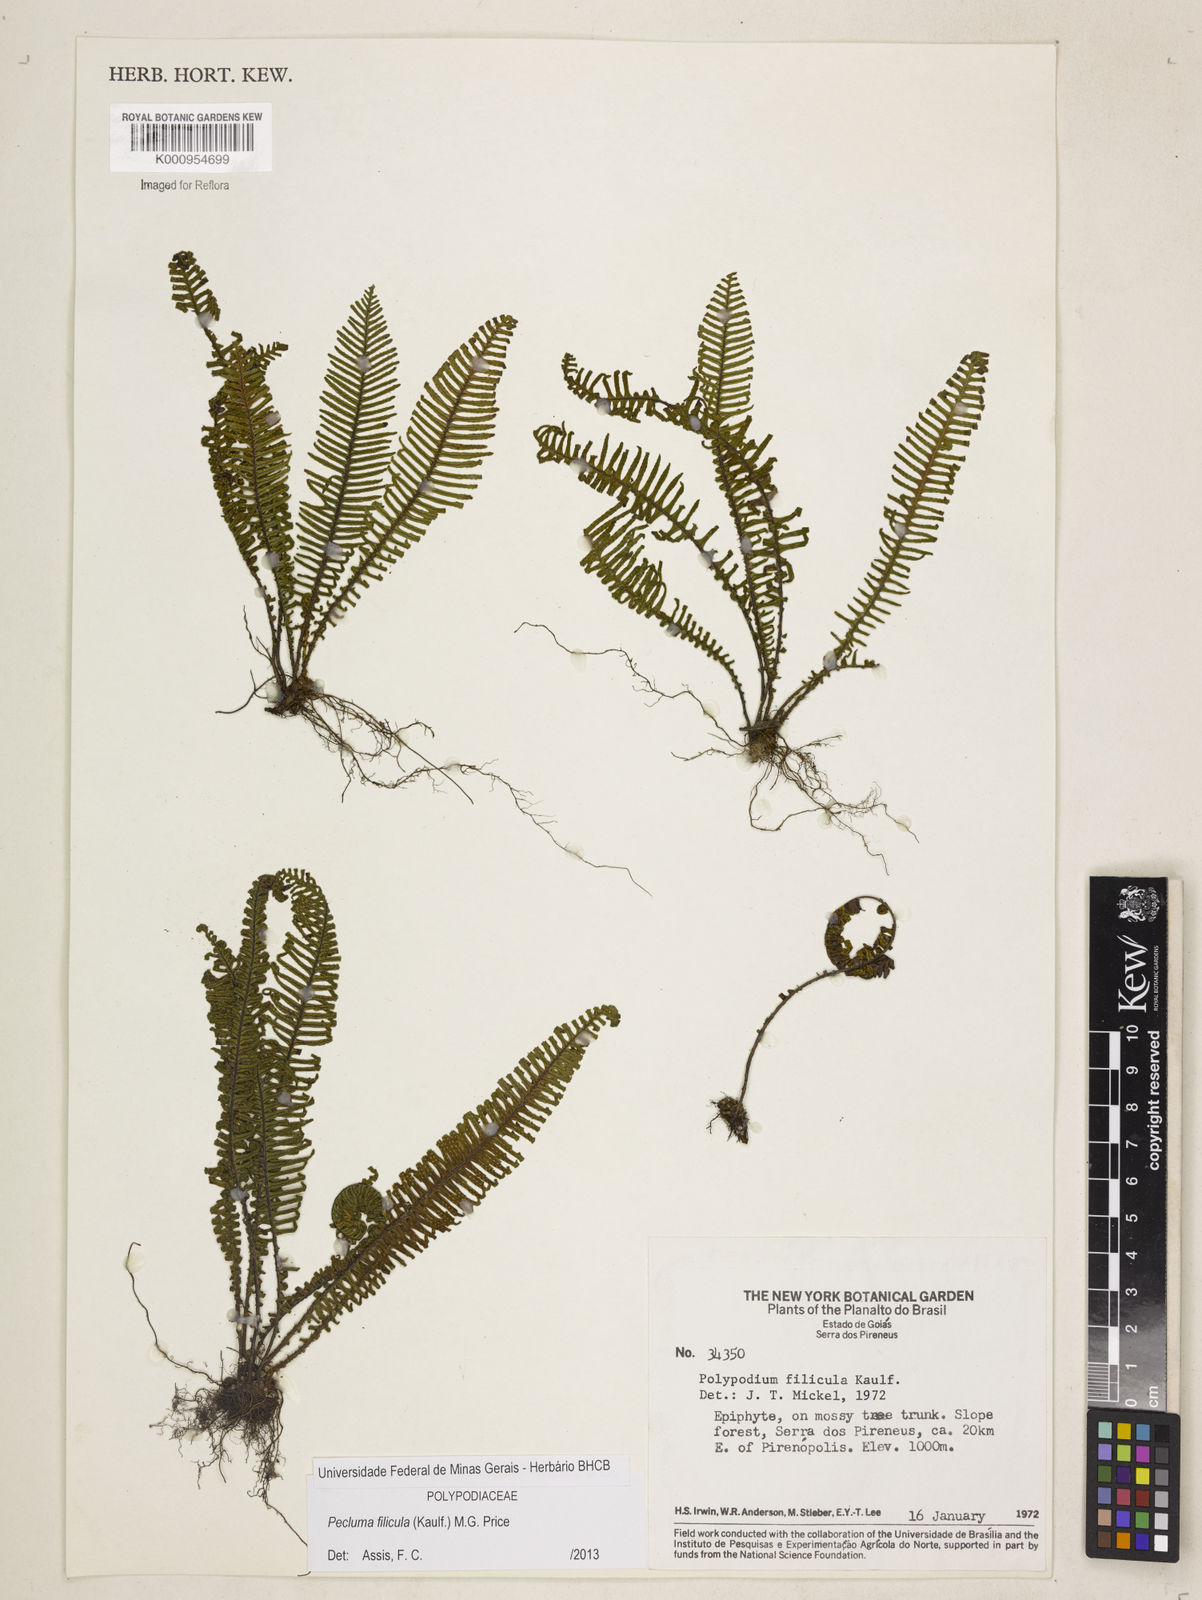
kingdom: Plantae
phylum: Tracheophyta
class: Polypodiopsida
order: Polypodiales
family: Polypodiaceae
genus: Pecluma
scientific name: Pecluma filicula
